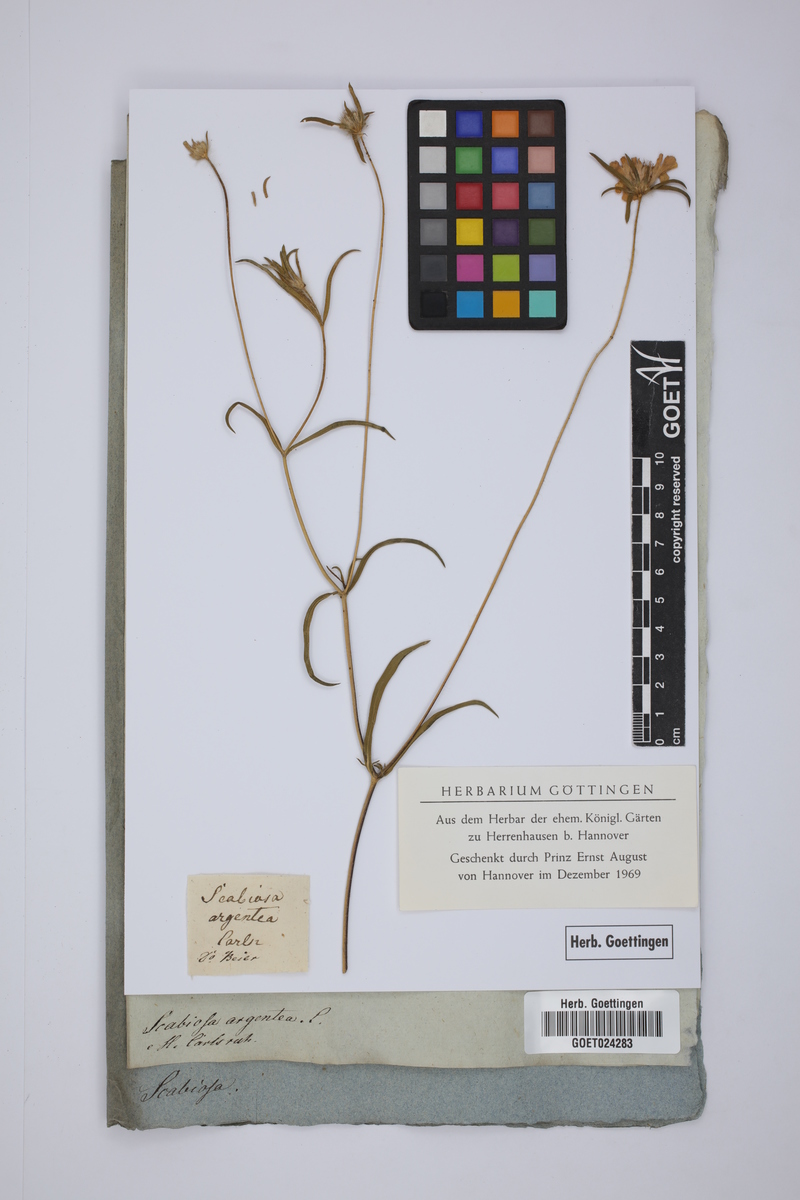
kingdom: Plantae
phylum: Tracheophyta
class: Magnoliopsida
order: Dipsacales
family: Caprifoliaceae
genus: Lomelosia
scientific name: Lomelosia argentea
